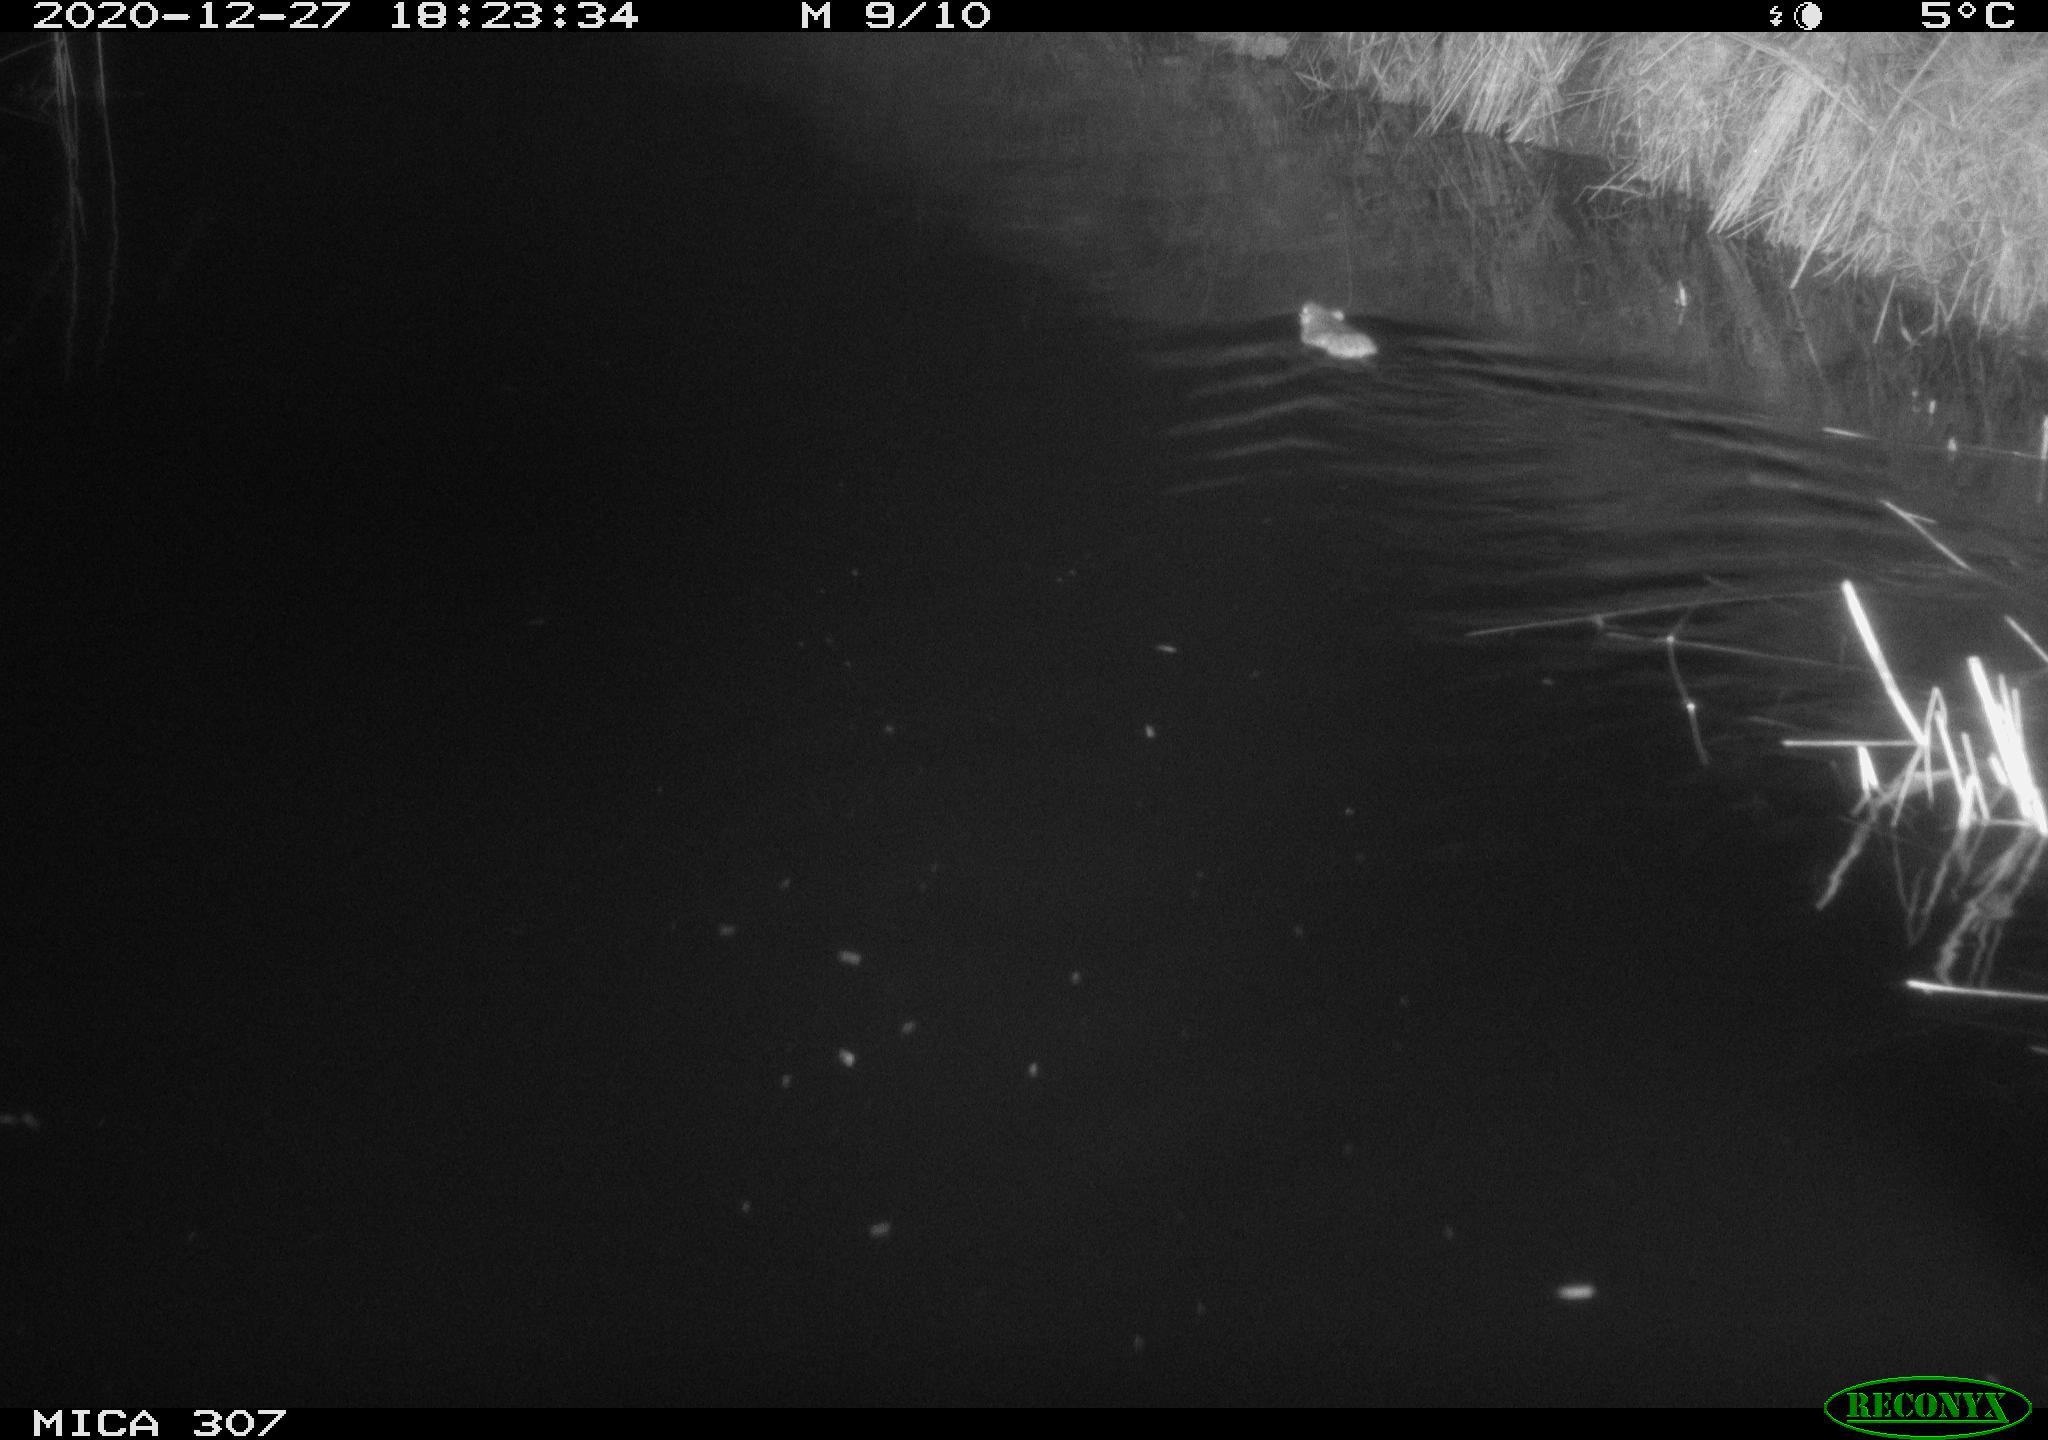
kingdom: Animalia
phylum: Chordata
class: Mammalia
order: Rodentia
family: Muridae
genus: Rattus
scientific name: Rattus norvegicus
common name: Brown rat
